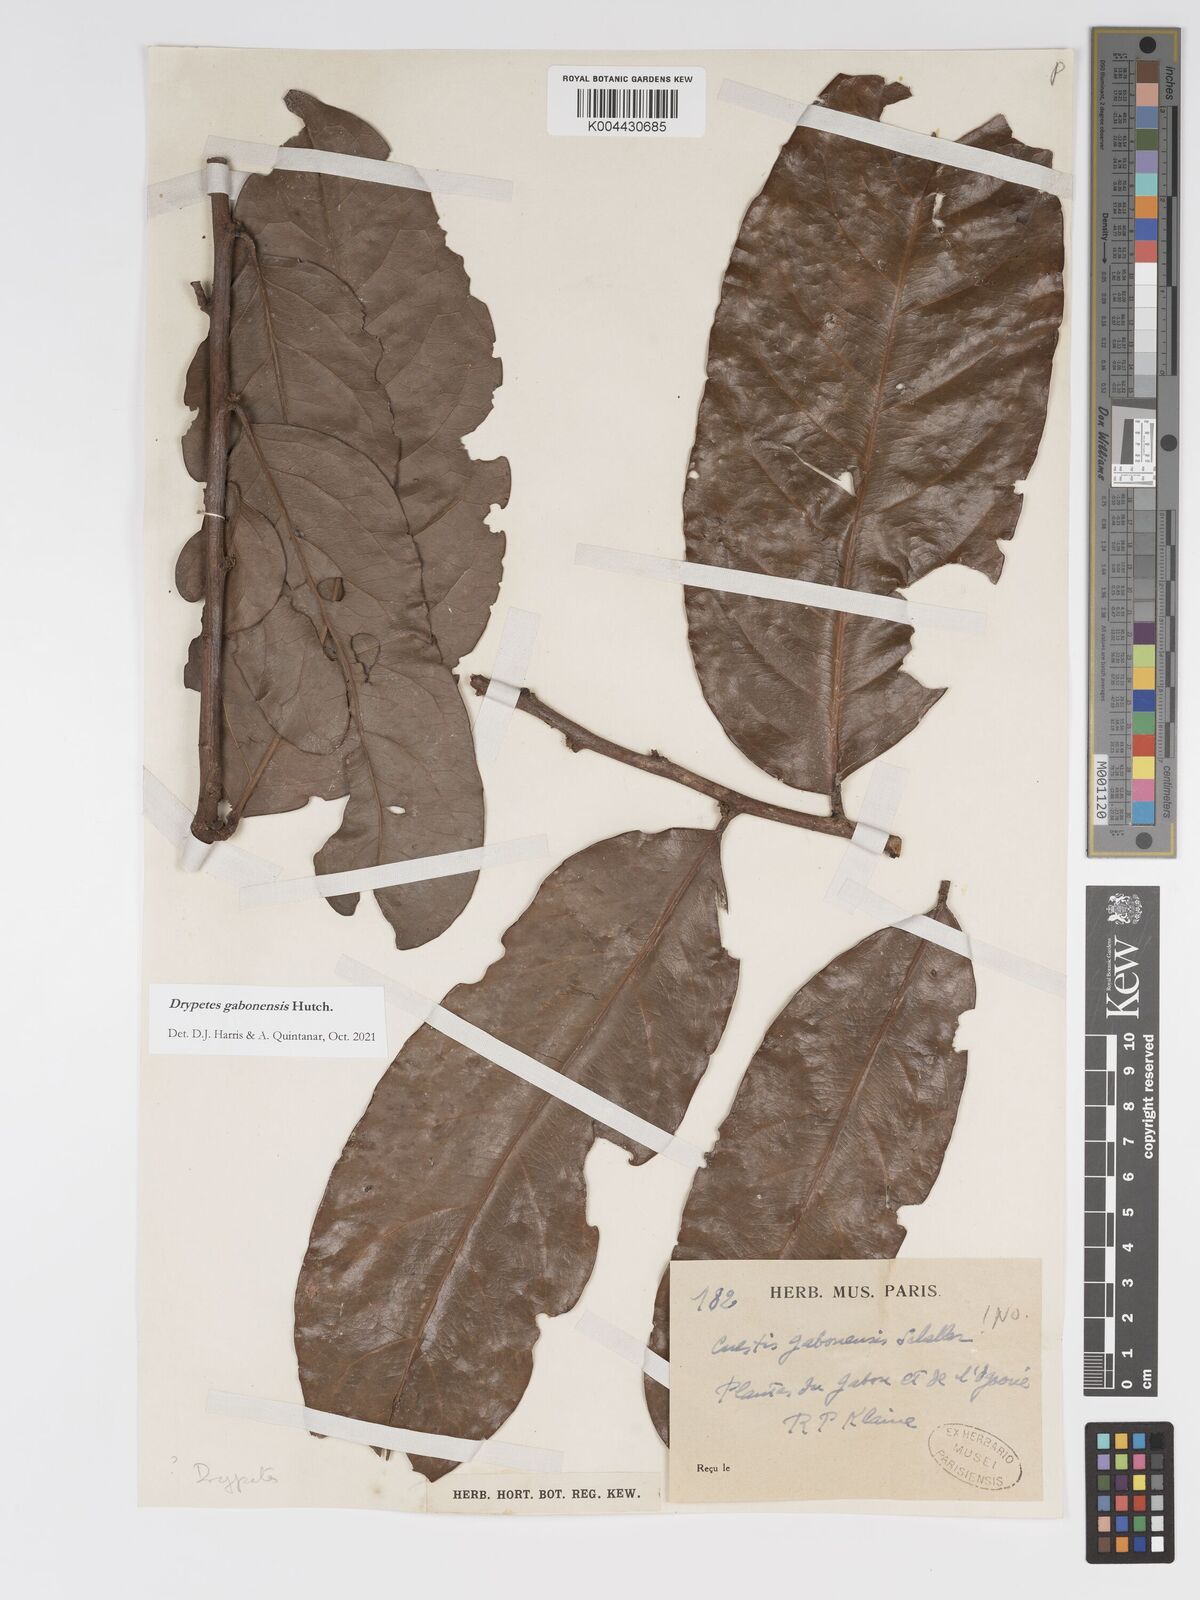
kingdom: Plantae
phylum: Tracheophyta
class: Magnoliopsida
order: Malpighiales
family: Putranjivaceae
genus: Drypetes
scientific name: Drypetes gabonensis
